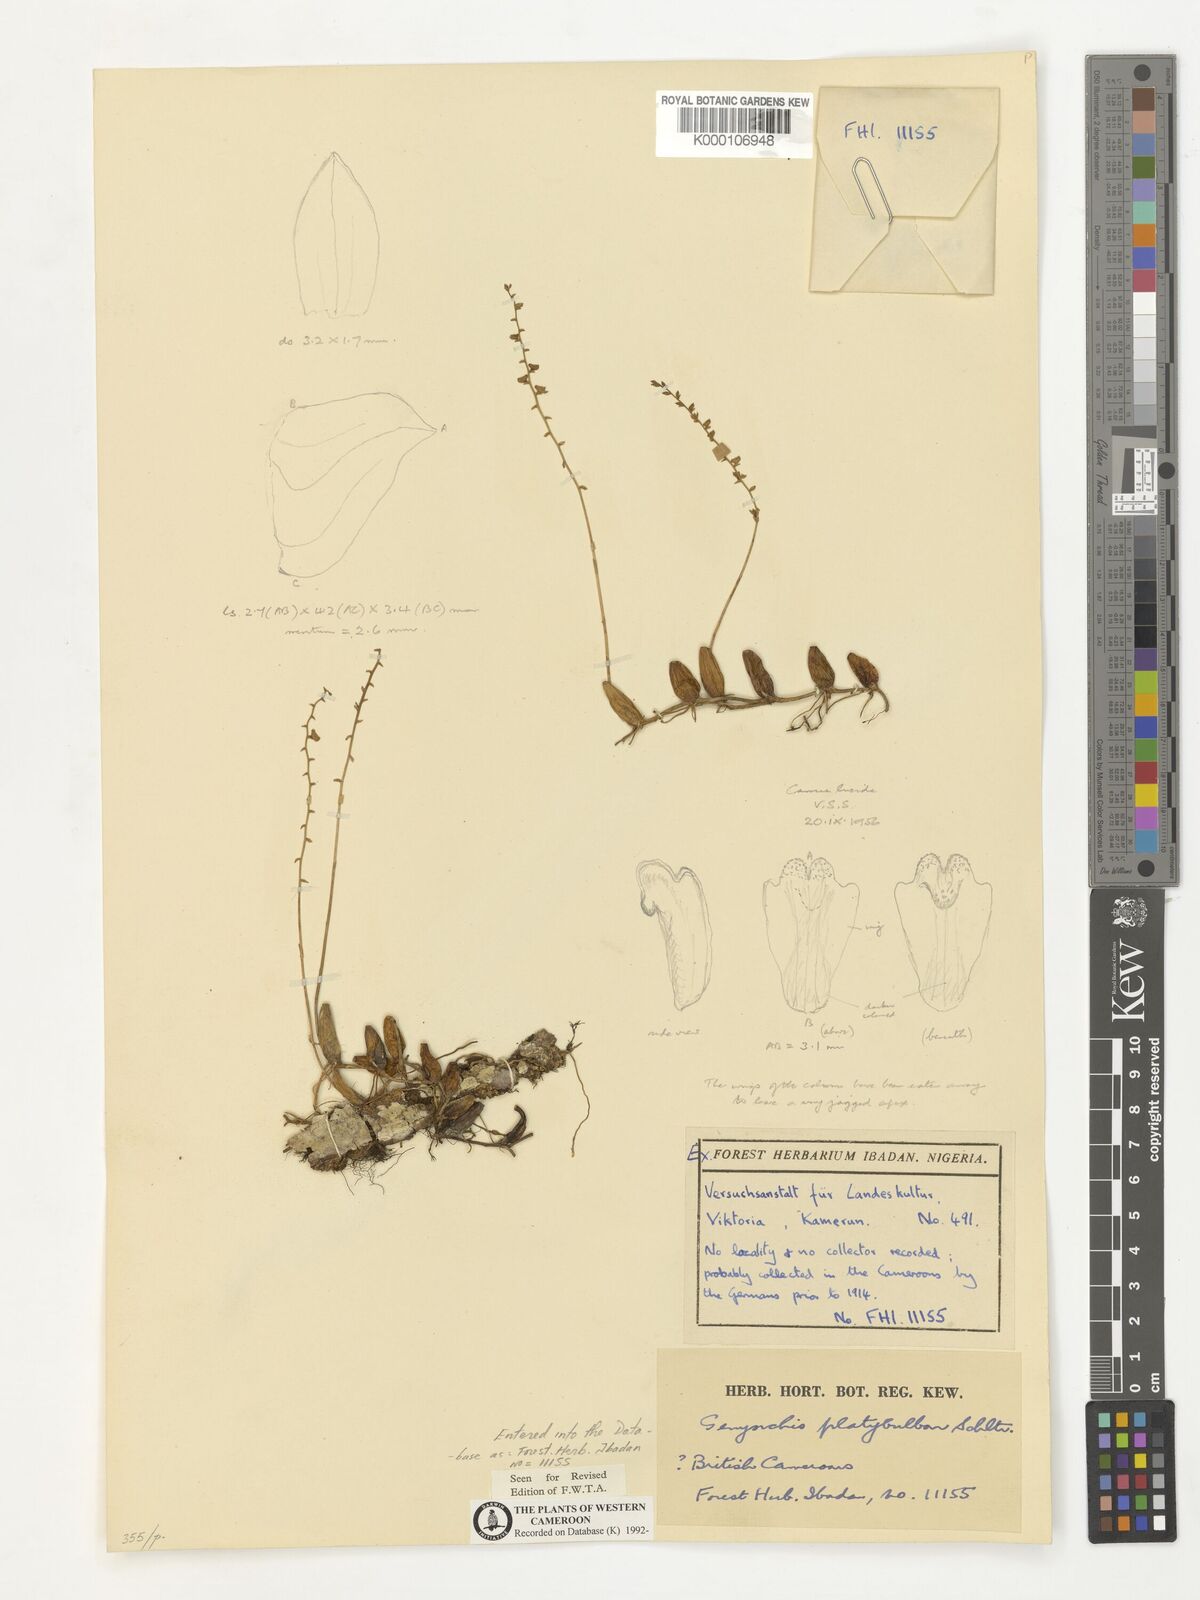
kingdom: Plantae
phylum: Tracheophyta
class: Liliopsida
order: Asparagales
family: Orchidaceae
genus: Bulbophyllum
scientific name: Bulbophyllum platybulbum
